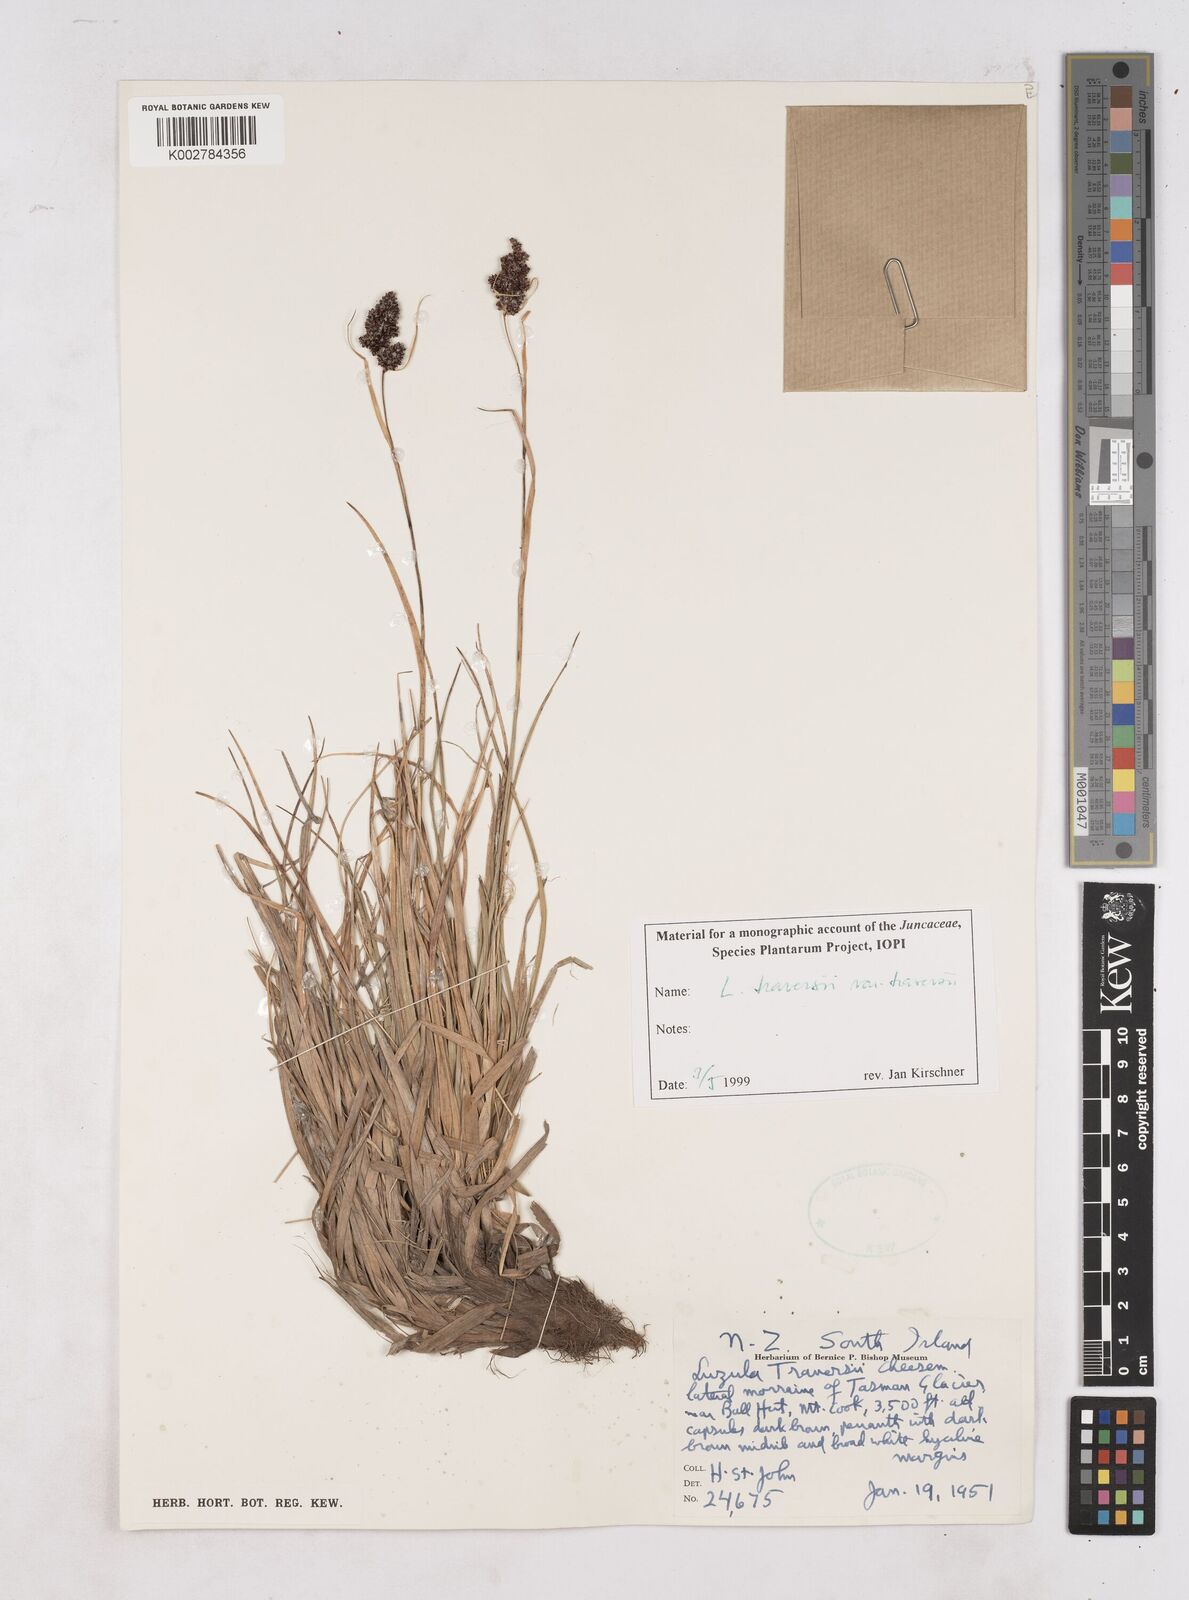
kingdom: Plantae
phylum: Tracheophyta
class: Liliopsida
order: Poales
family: Juncaceae
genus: Luzula
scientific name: Luzula traversii
